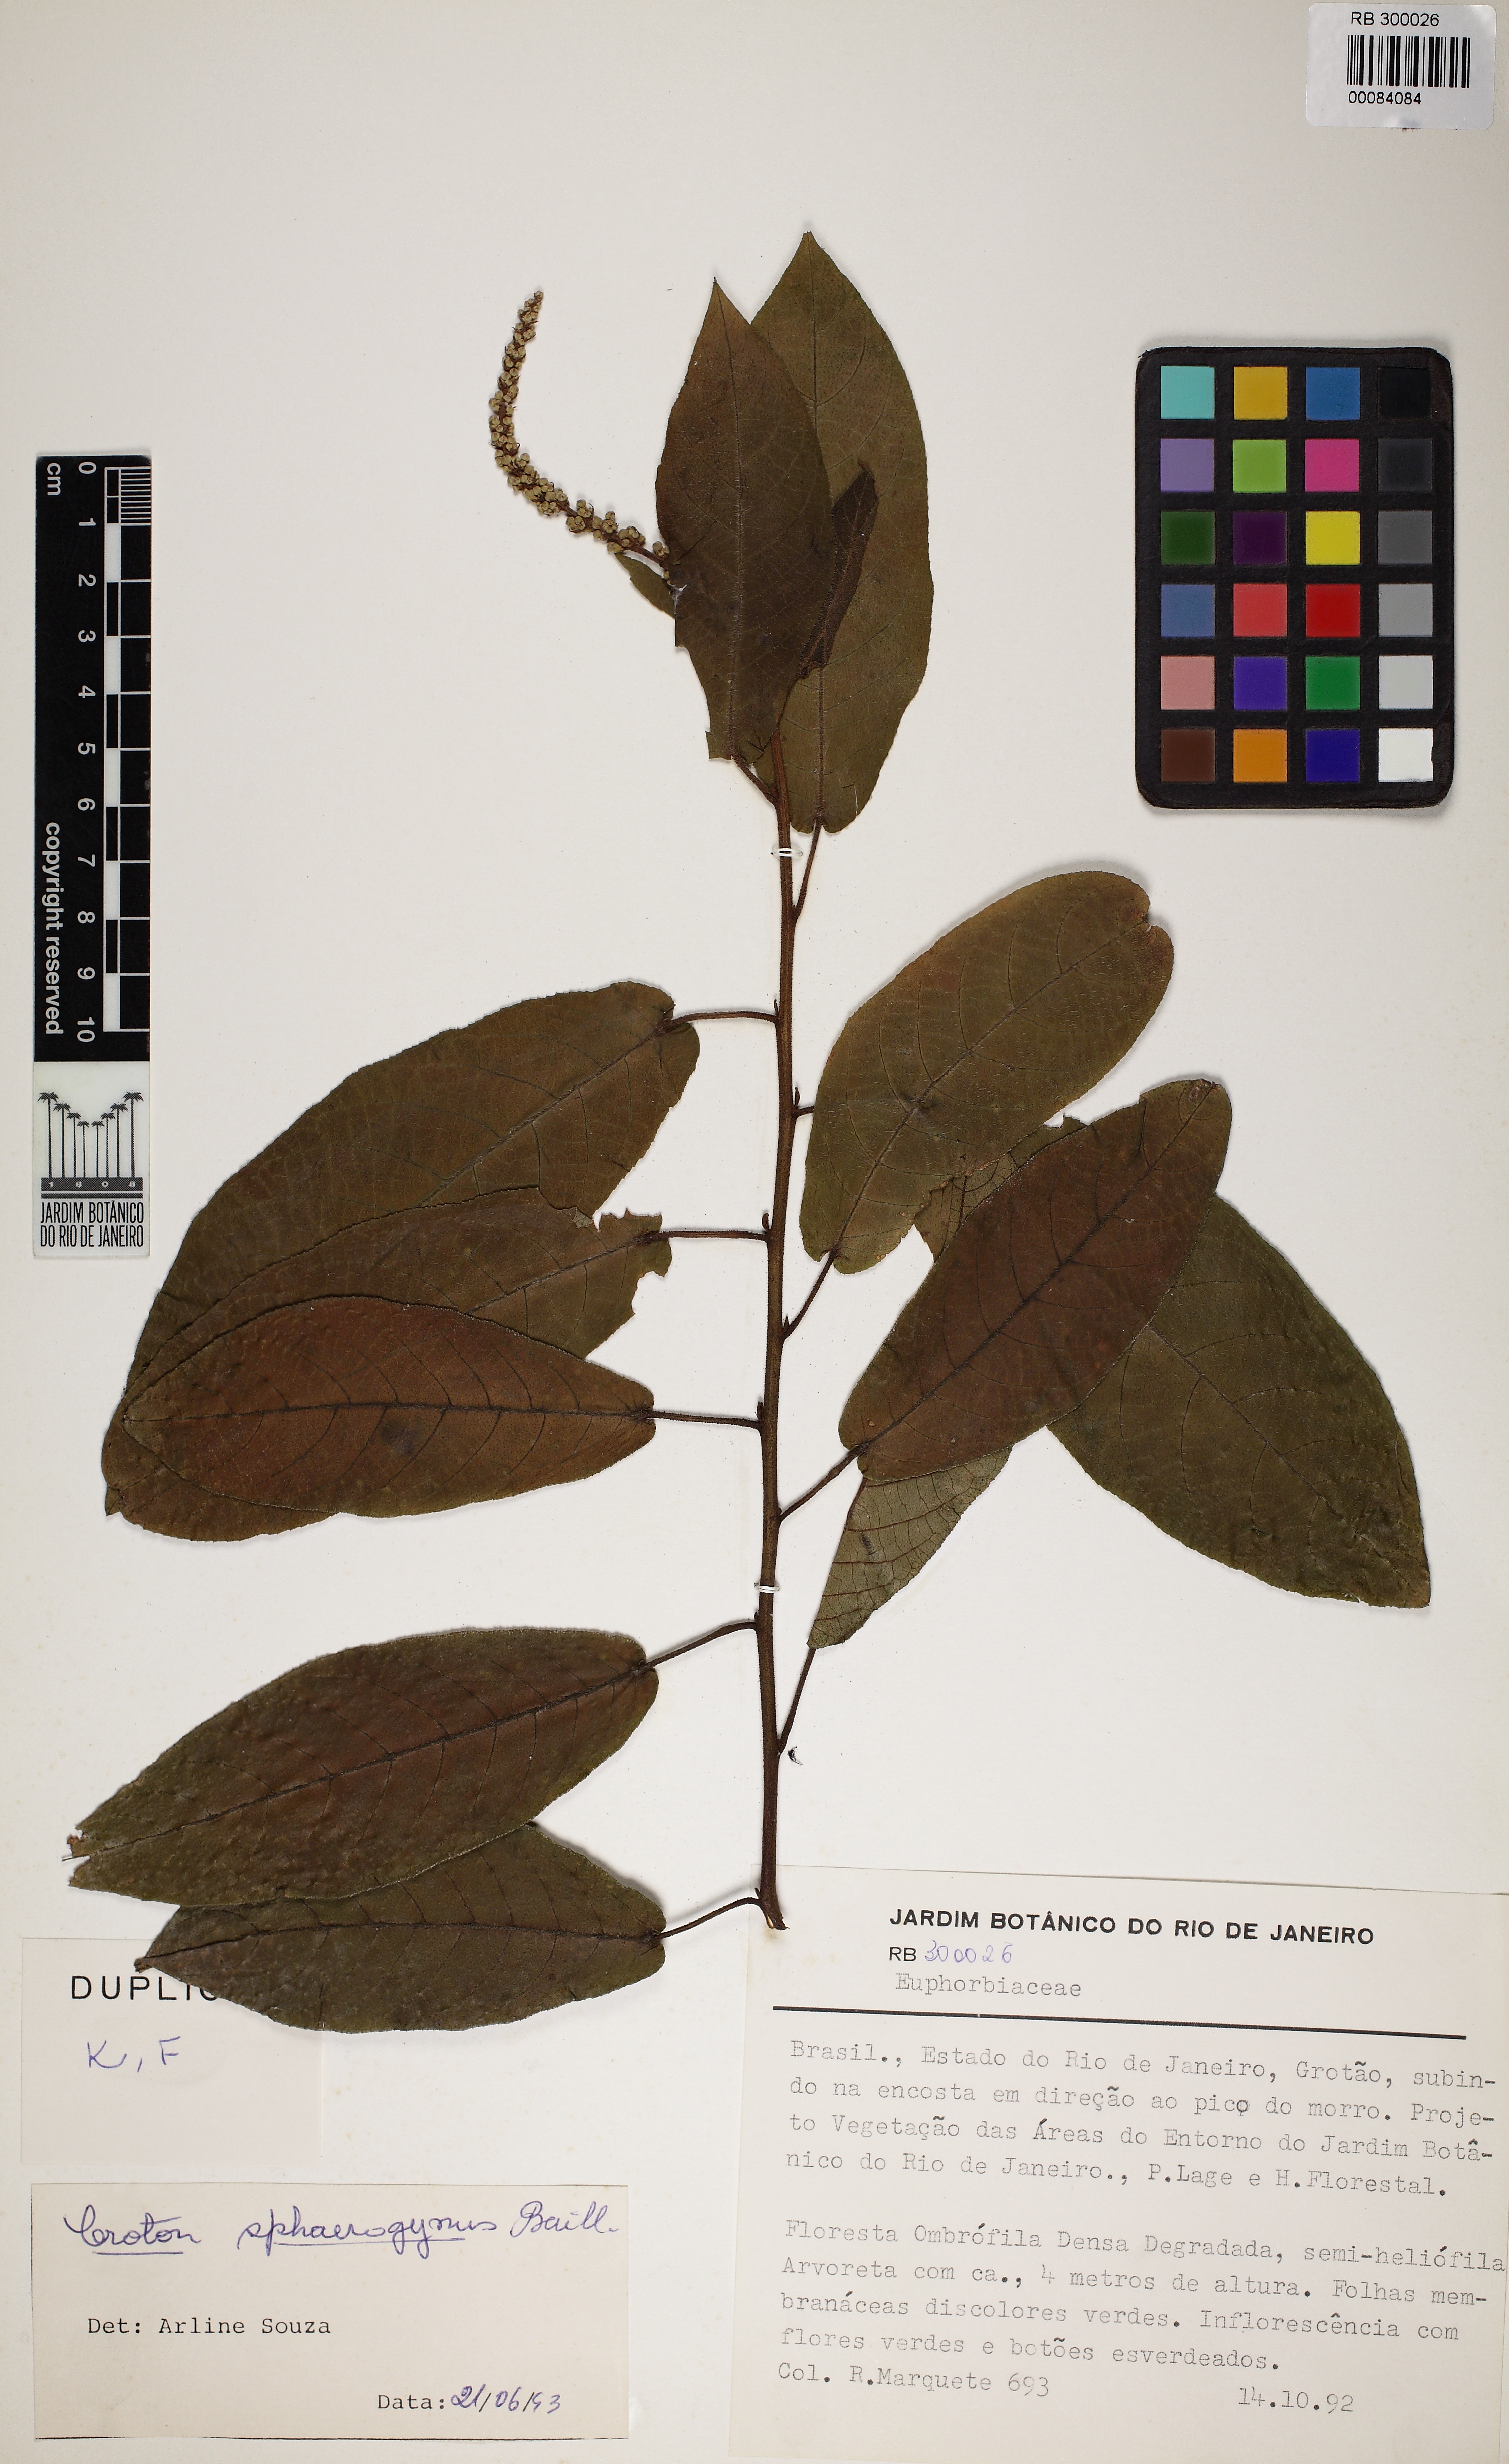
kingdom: Plantae
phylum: Tracheophyta
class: Magnoliopsida
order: Malpighiales
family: Euphorbiaceae
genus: Croton
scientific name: Croton sphaerogynus
